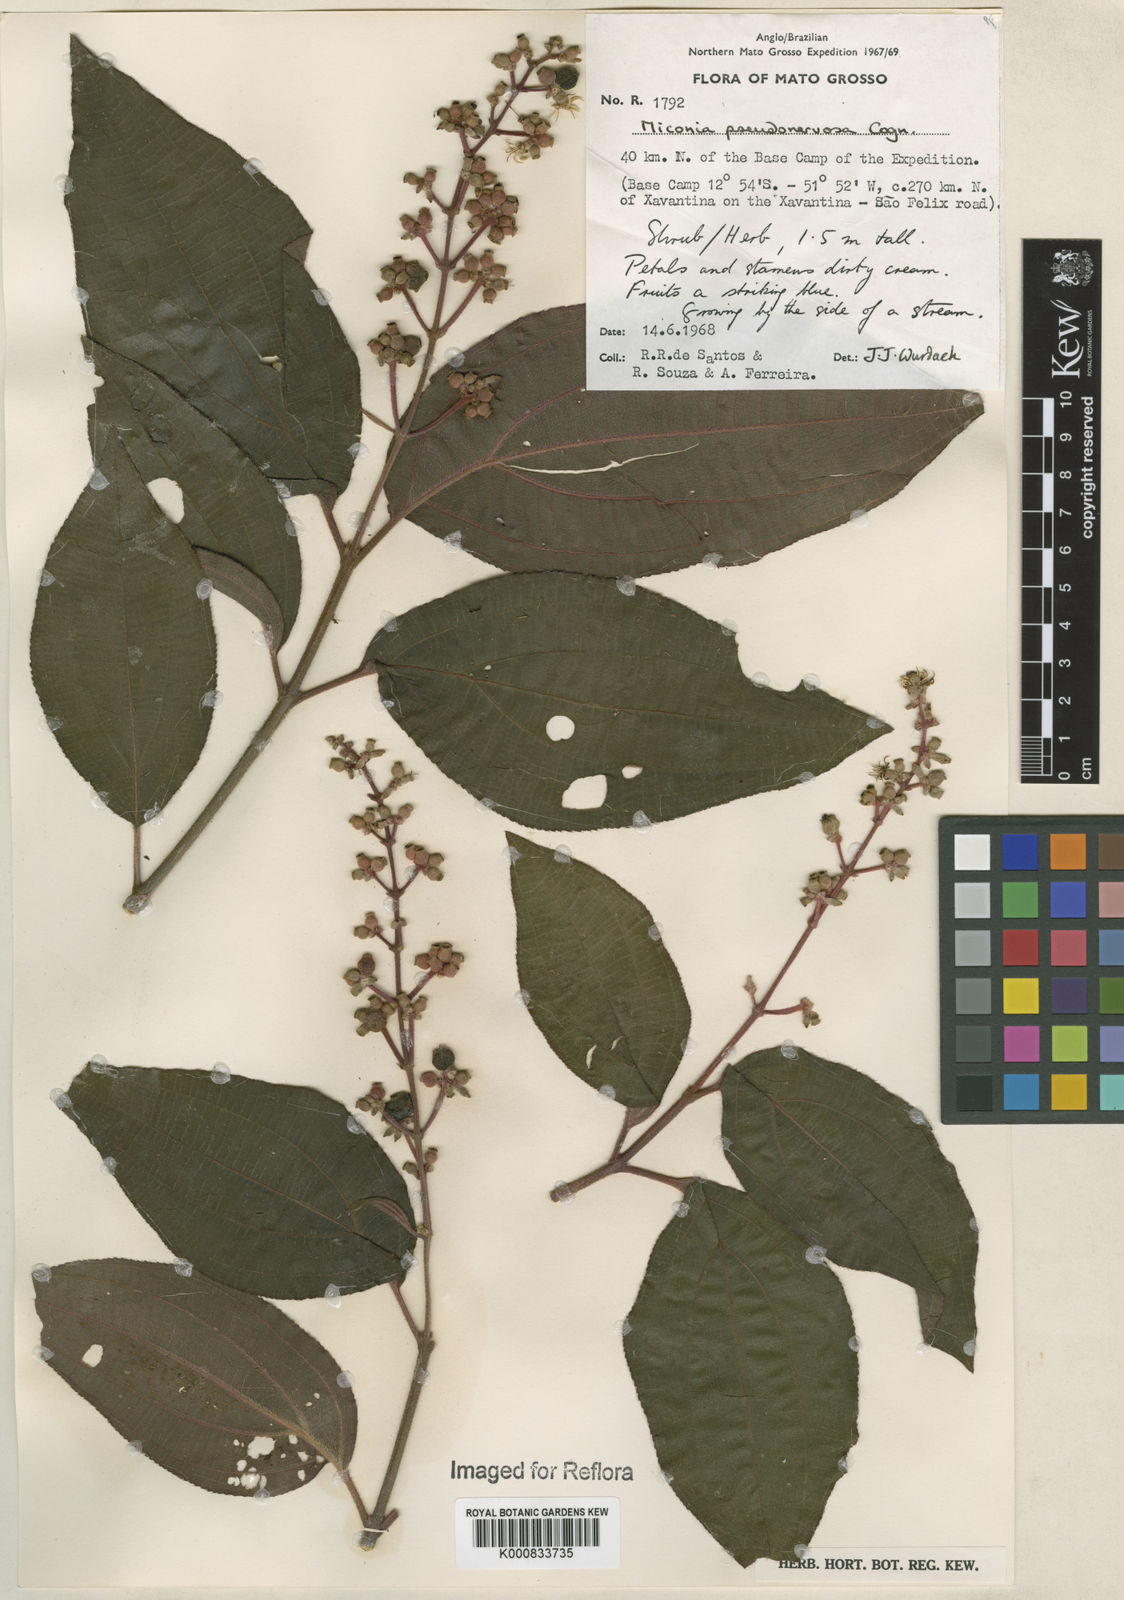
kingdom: Plantae
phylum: Tracheophyta
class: Magnoliopsida
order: Myrtales
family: Melastomataceae
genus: Miconia
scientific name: Miconia pseudonervosa
